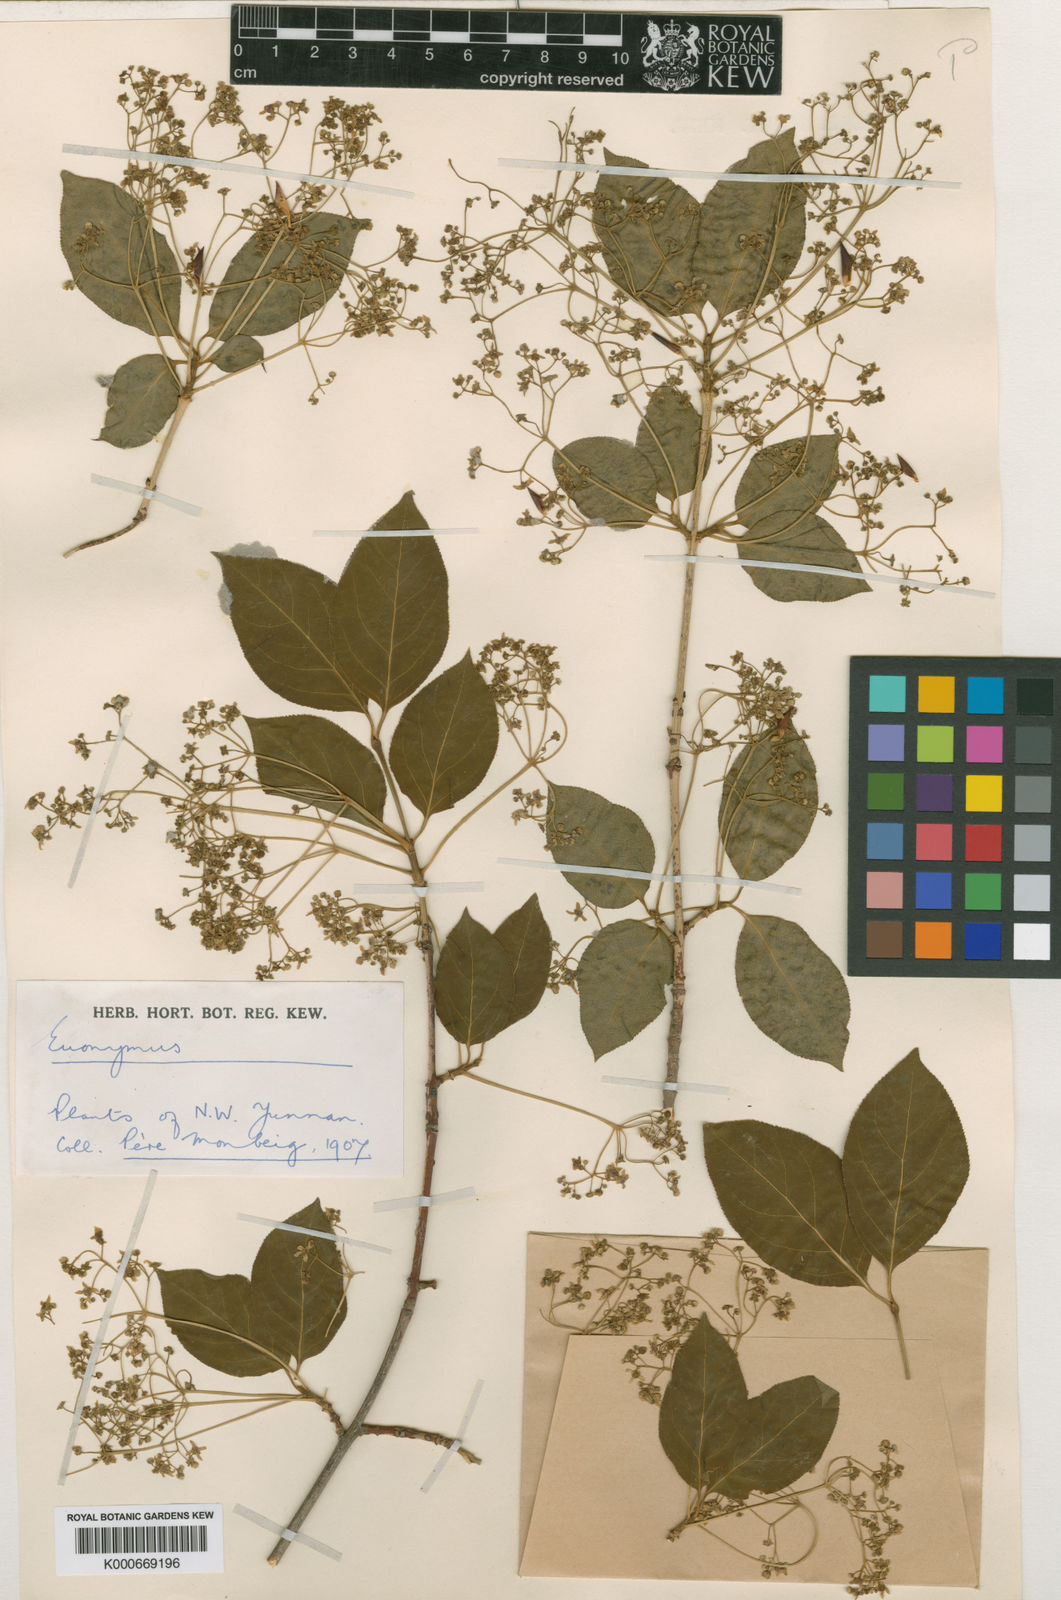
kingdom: Plantae
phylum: Tracheophyta
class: Magnoliopsida
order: Celastrales
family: Celastraceae
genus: Euonymus
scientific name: Euonymus sanguineus
